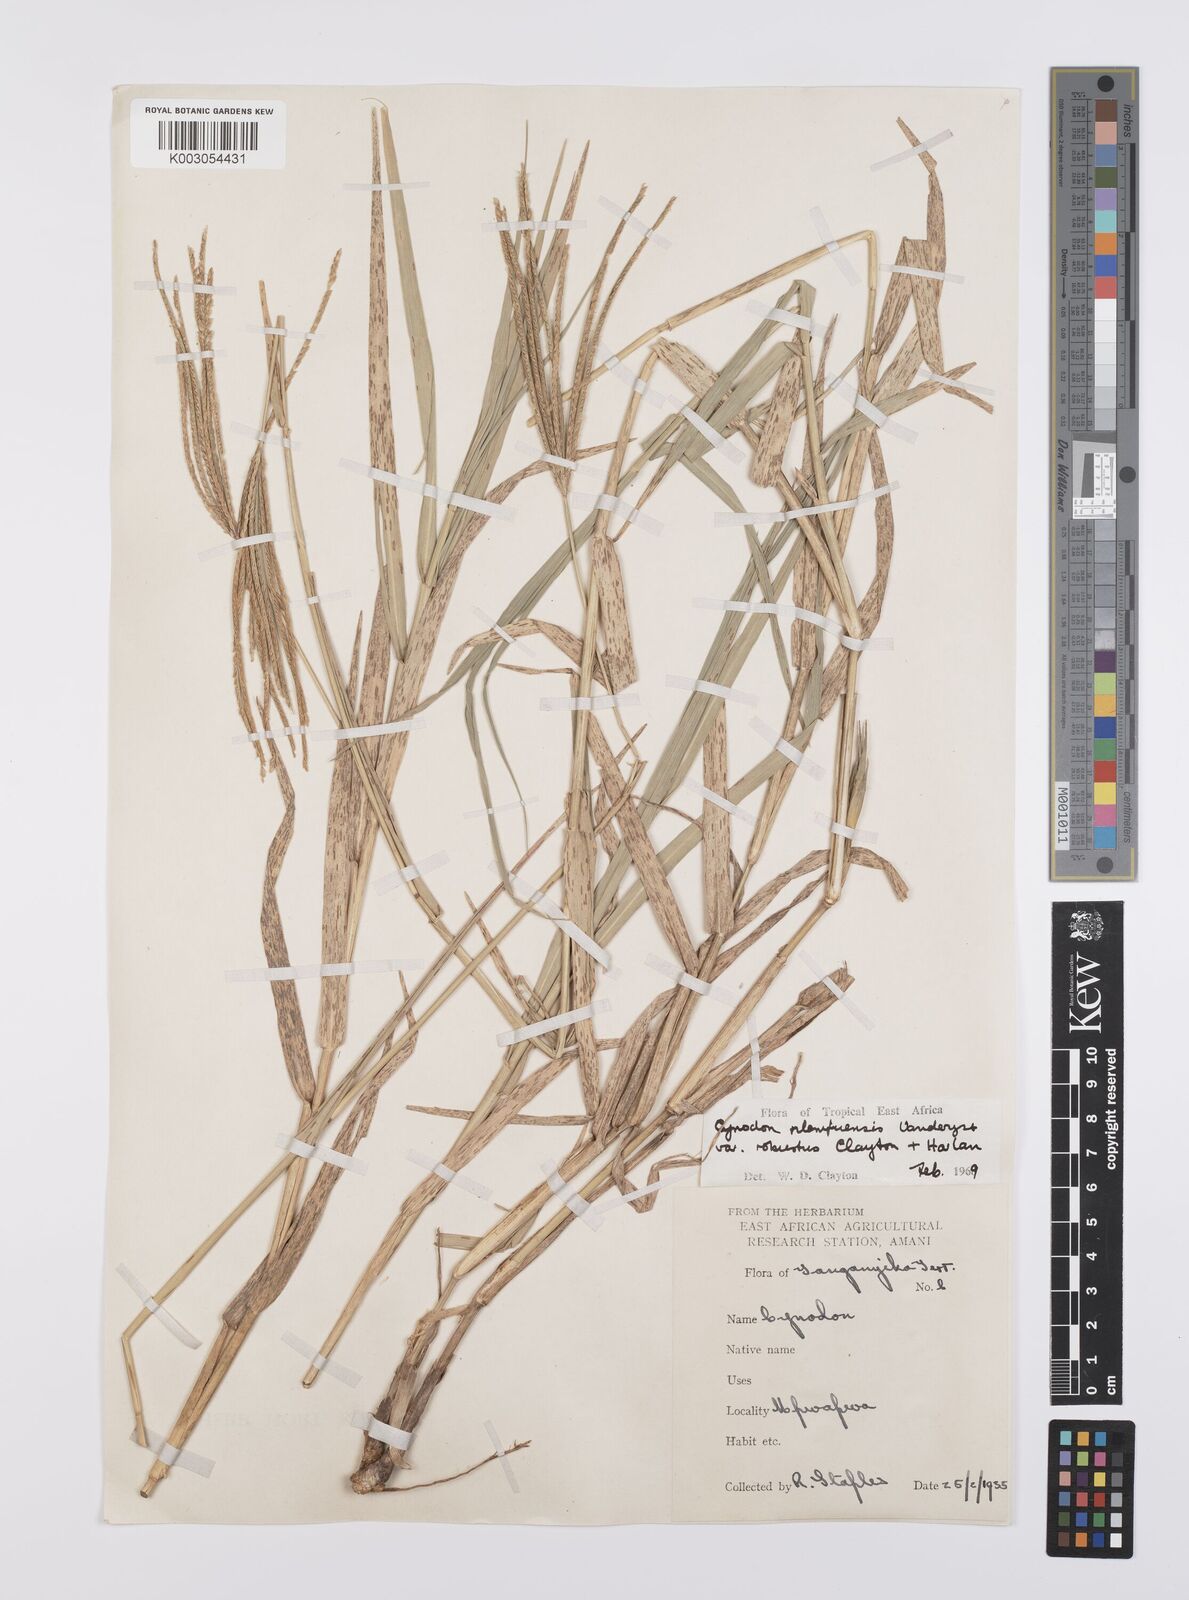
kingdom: Plantae
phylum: Tracheophyta
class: Liliopsida
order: Poales
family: Poaceae
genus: Cynodon
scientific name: Cynodon nlemfuensis
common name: African bermudagrass
